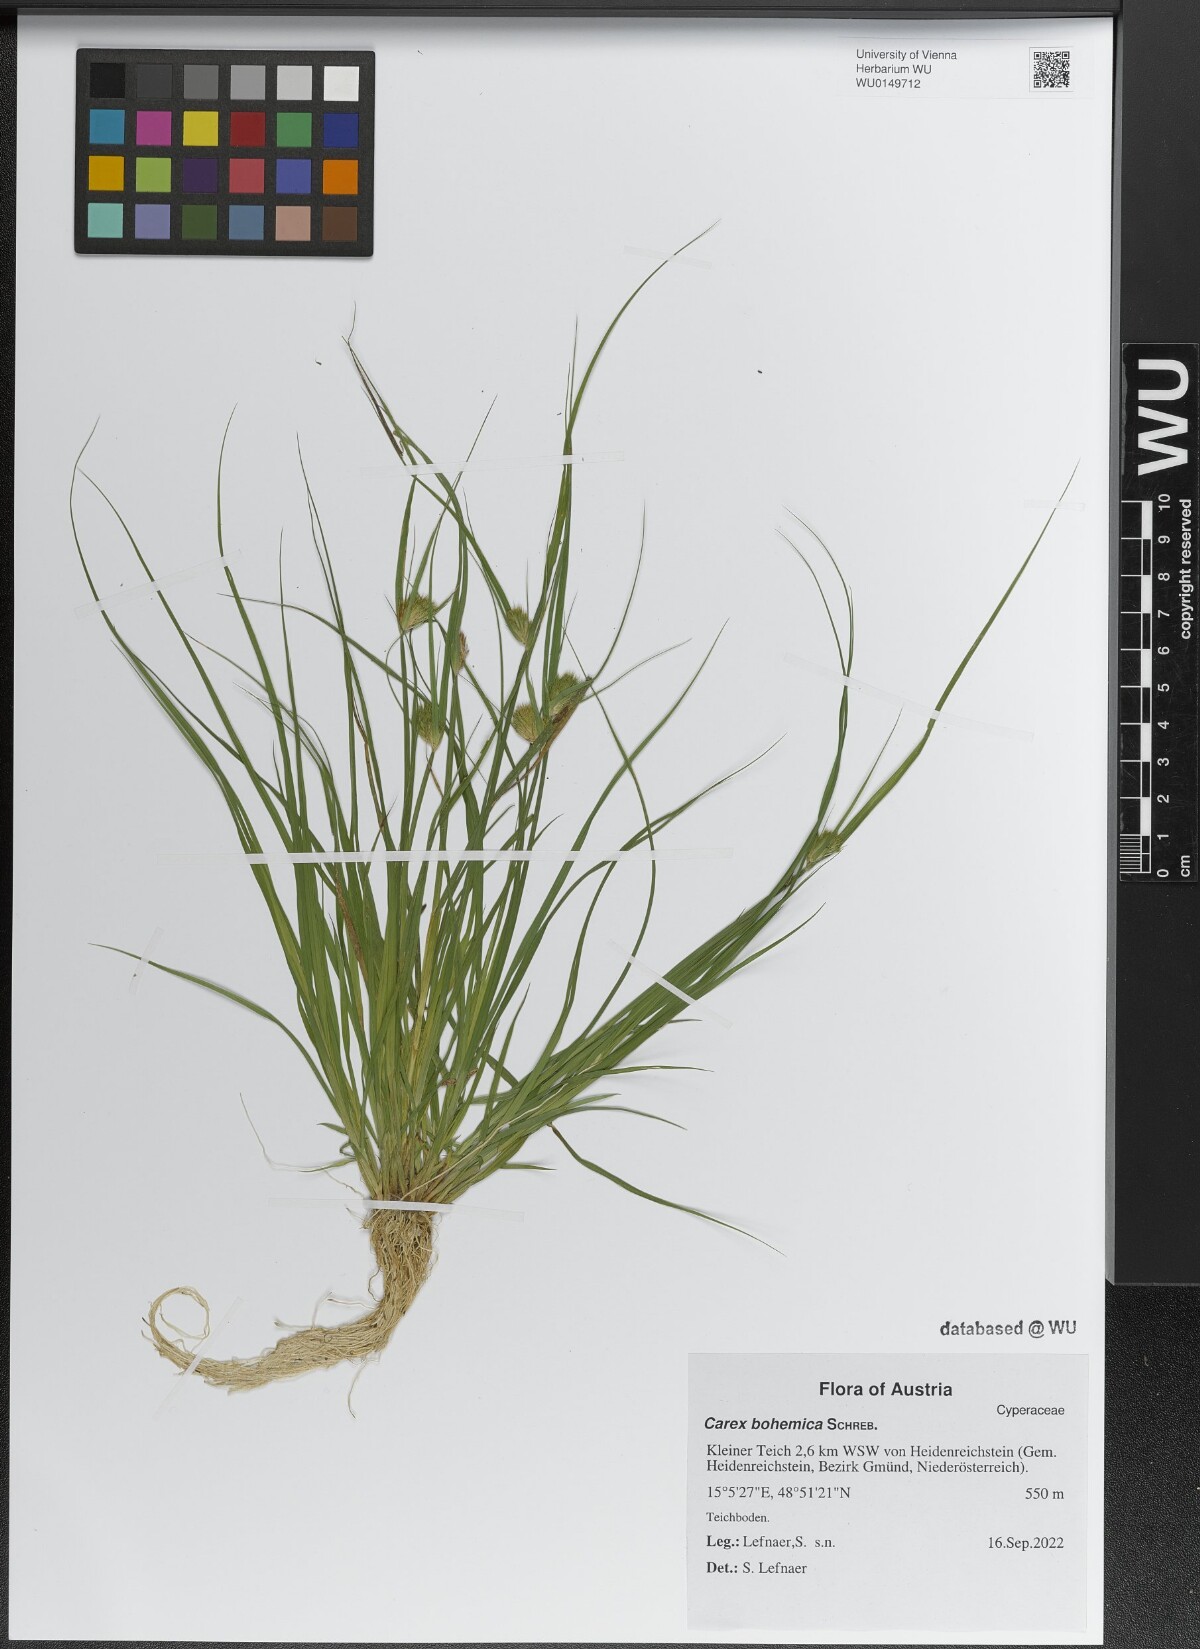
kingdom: Plantae
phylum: Tracheophyta
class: Liliopsida
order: Poales
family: Cyperaceae
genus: Carex
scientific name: Carex bohemica
